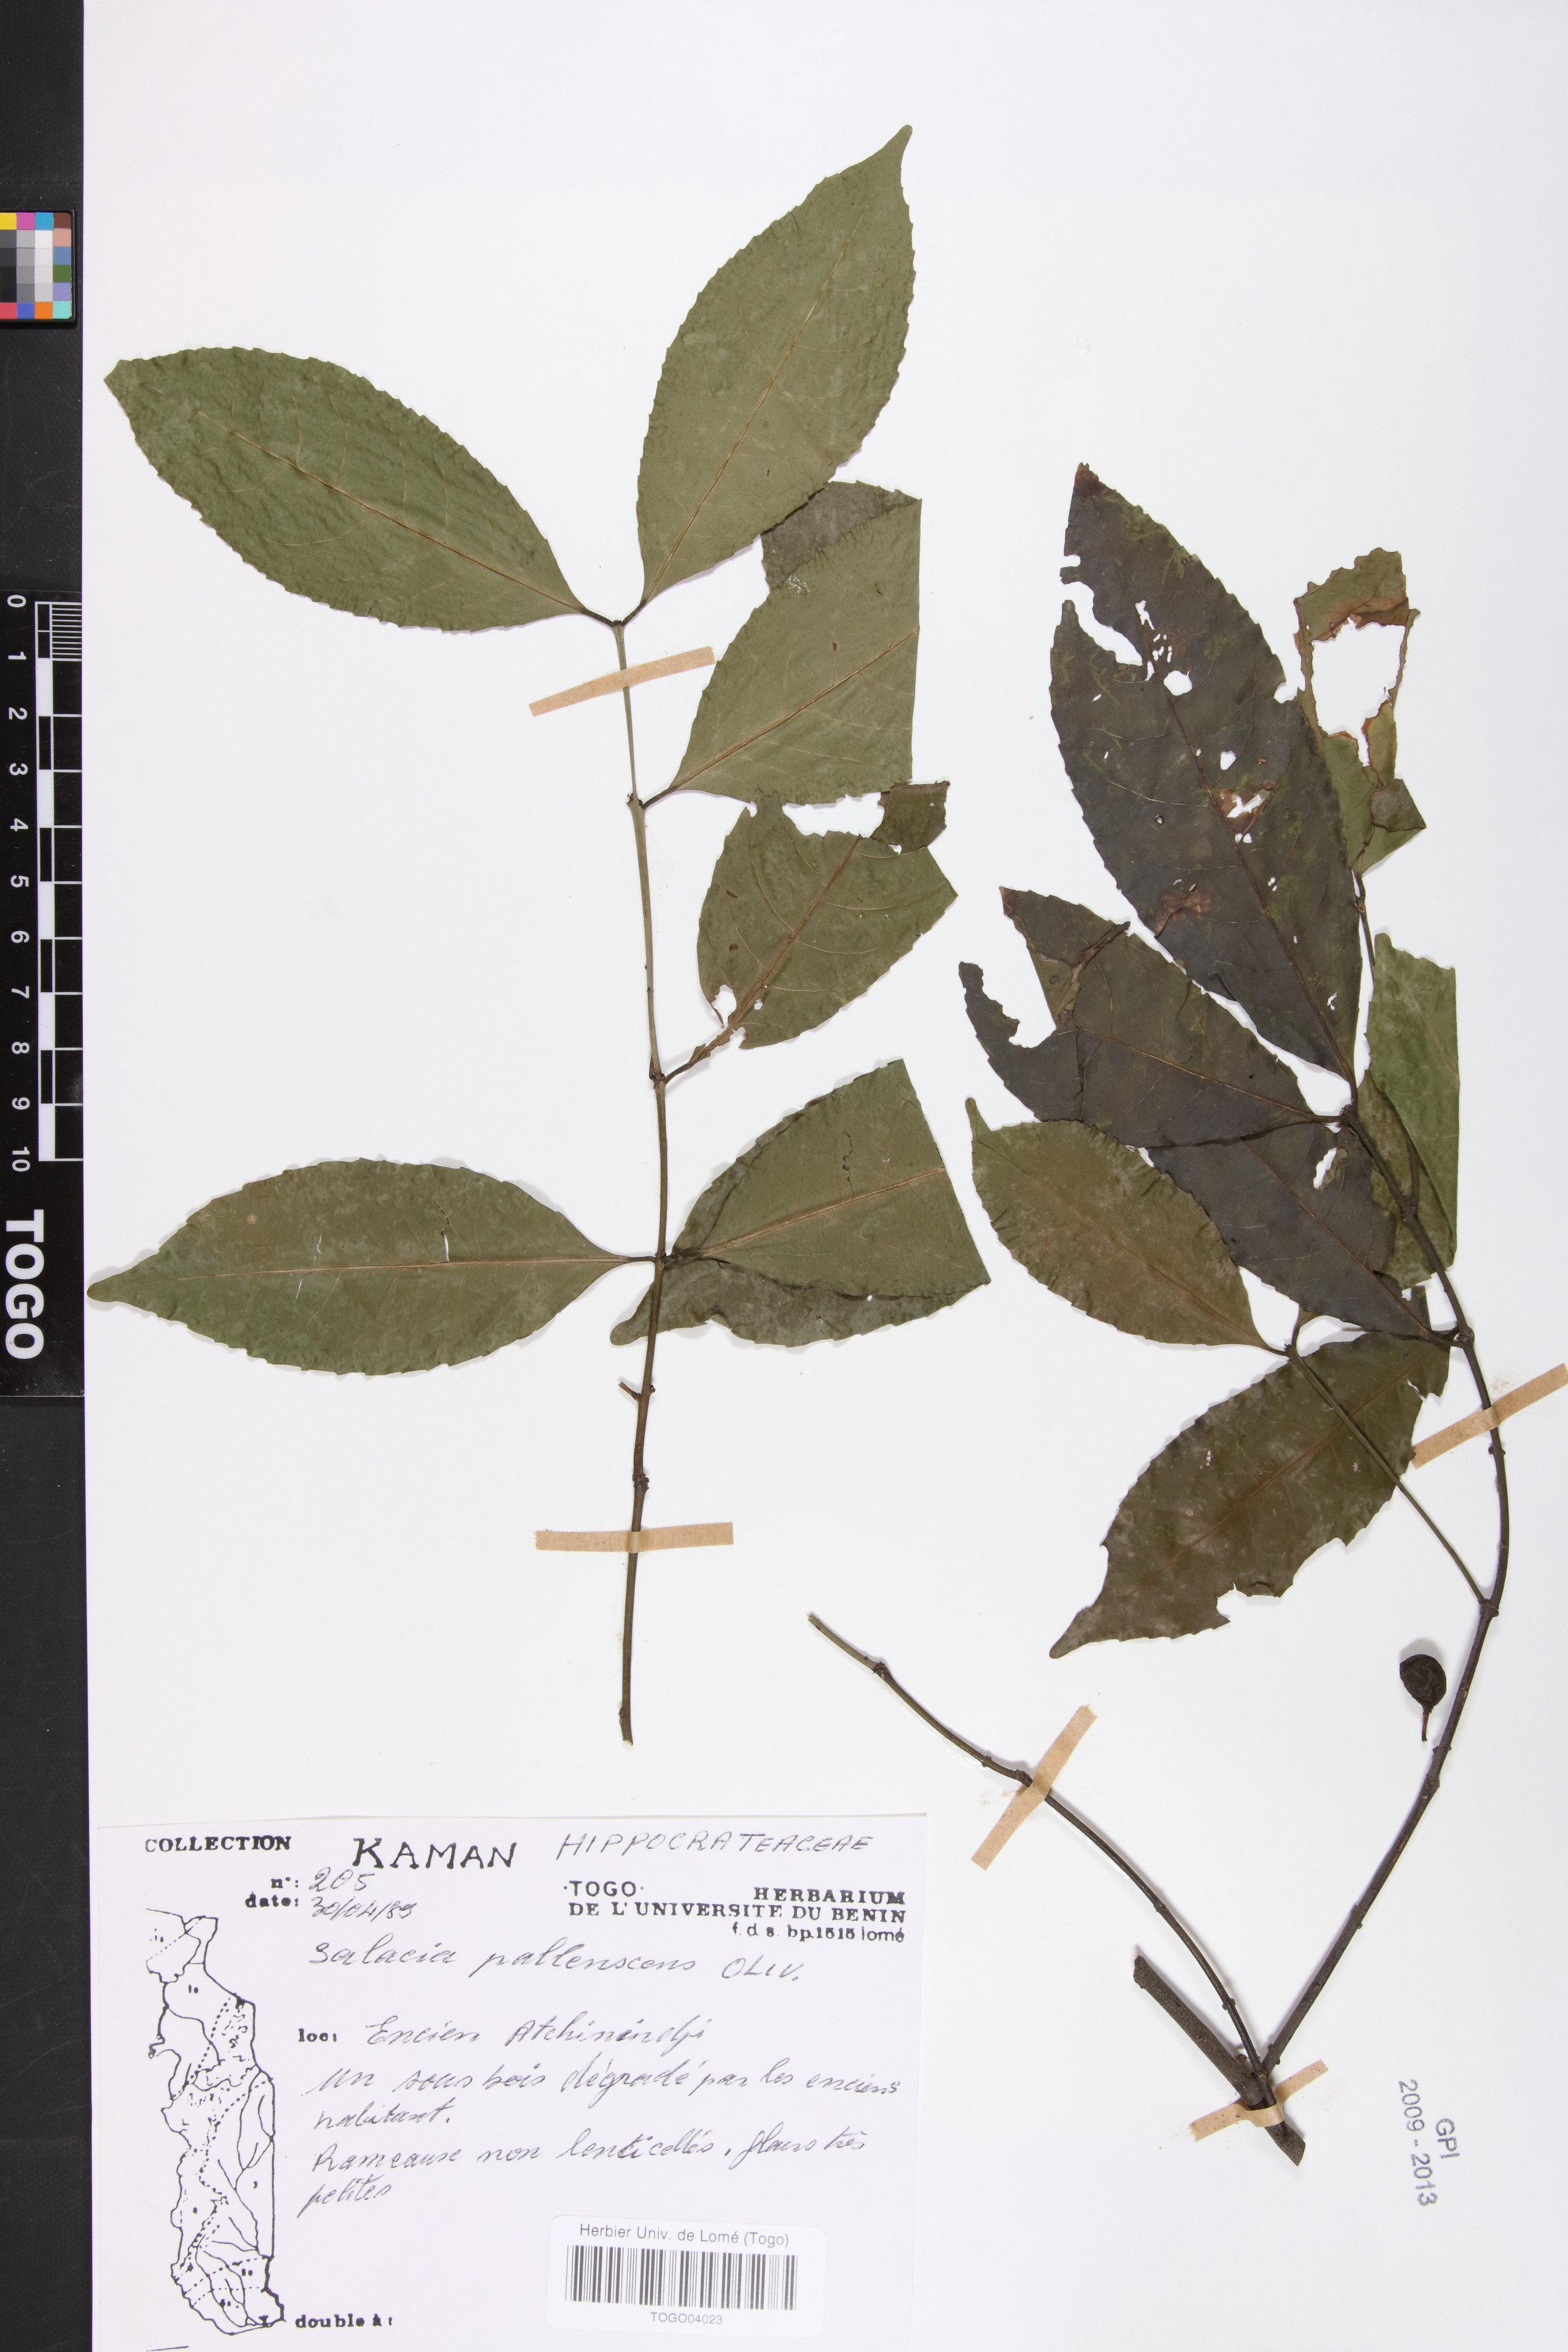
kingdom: Plantae
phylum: Tracheophyta
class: Magnoliopsida
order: Celastrales
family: Celastraceae
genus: Salacia
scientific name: Salacia pallescens
